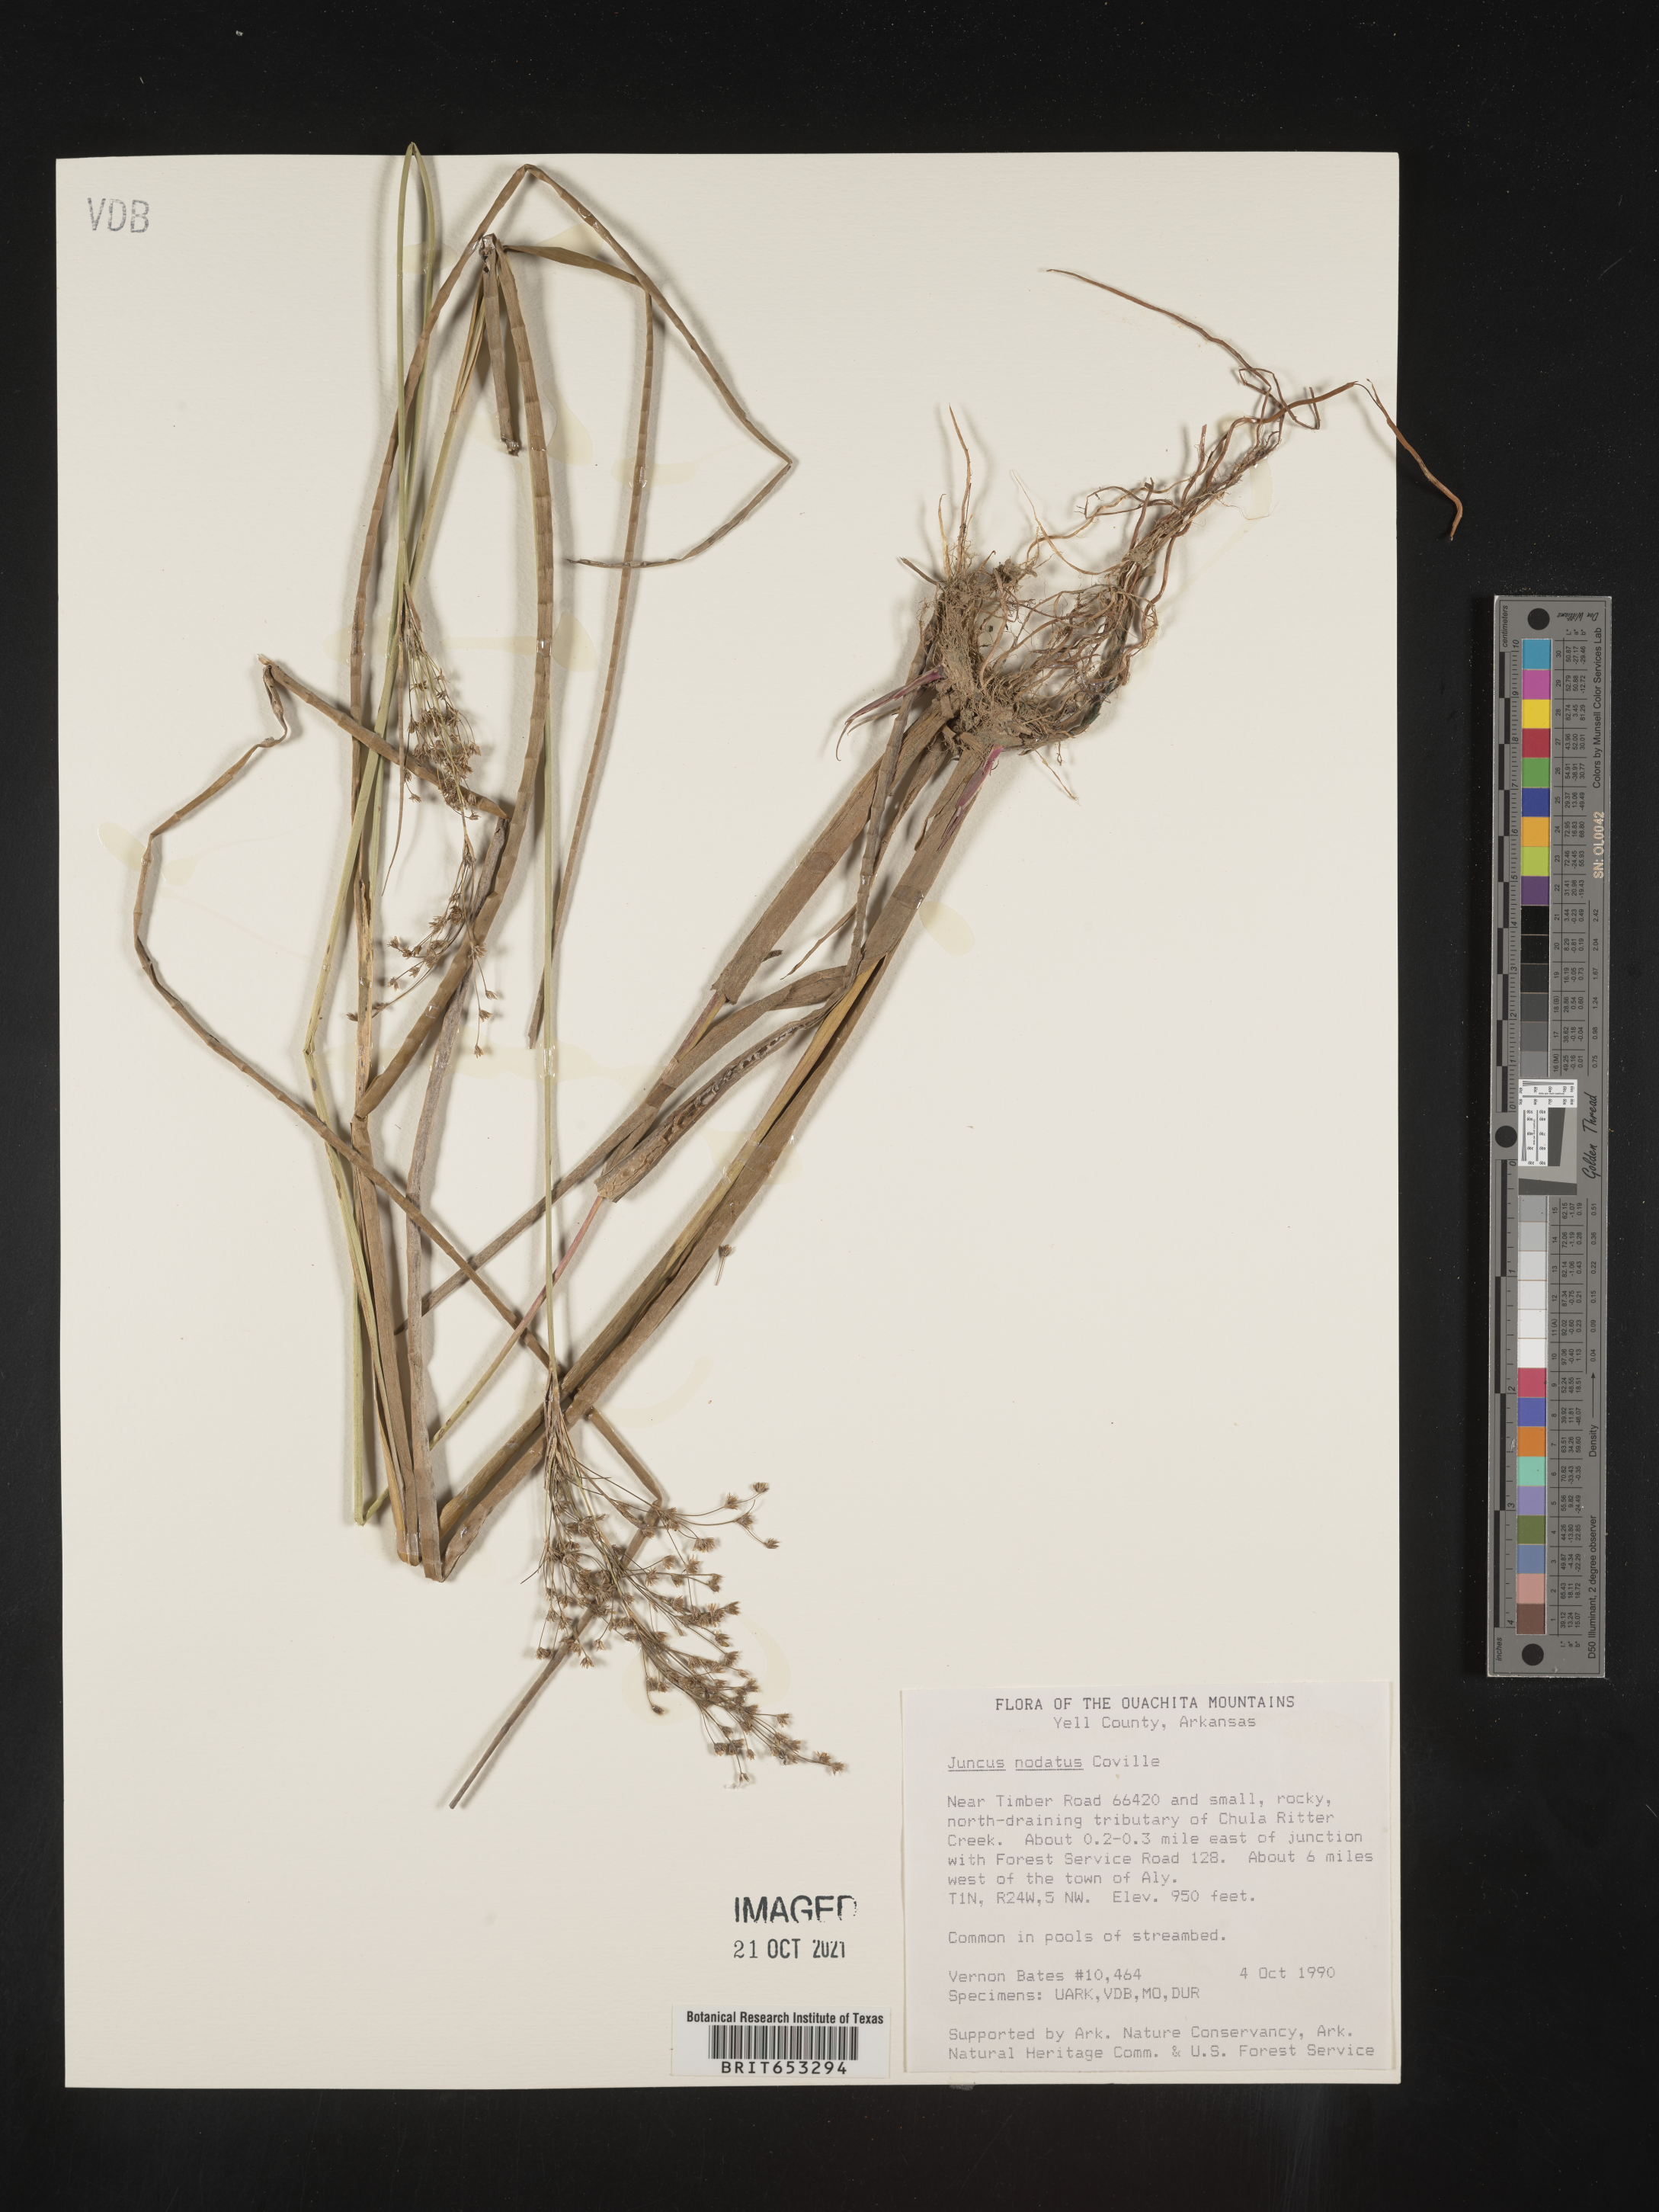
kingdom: Plantae
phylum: Tracheophyta
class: Liliopsida
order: Poales
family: Juncaceae
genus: Juncus
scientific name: Juncus nodatus
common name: Stout rush
